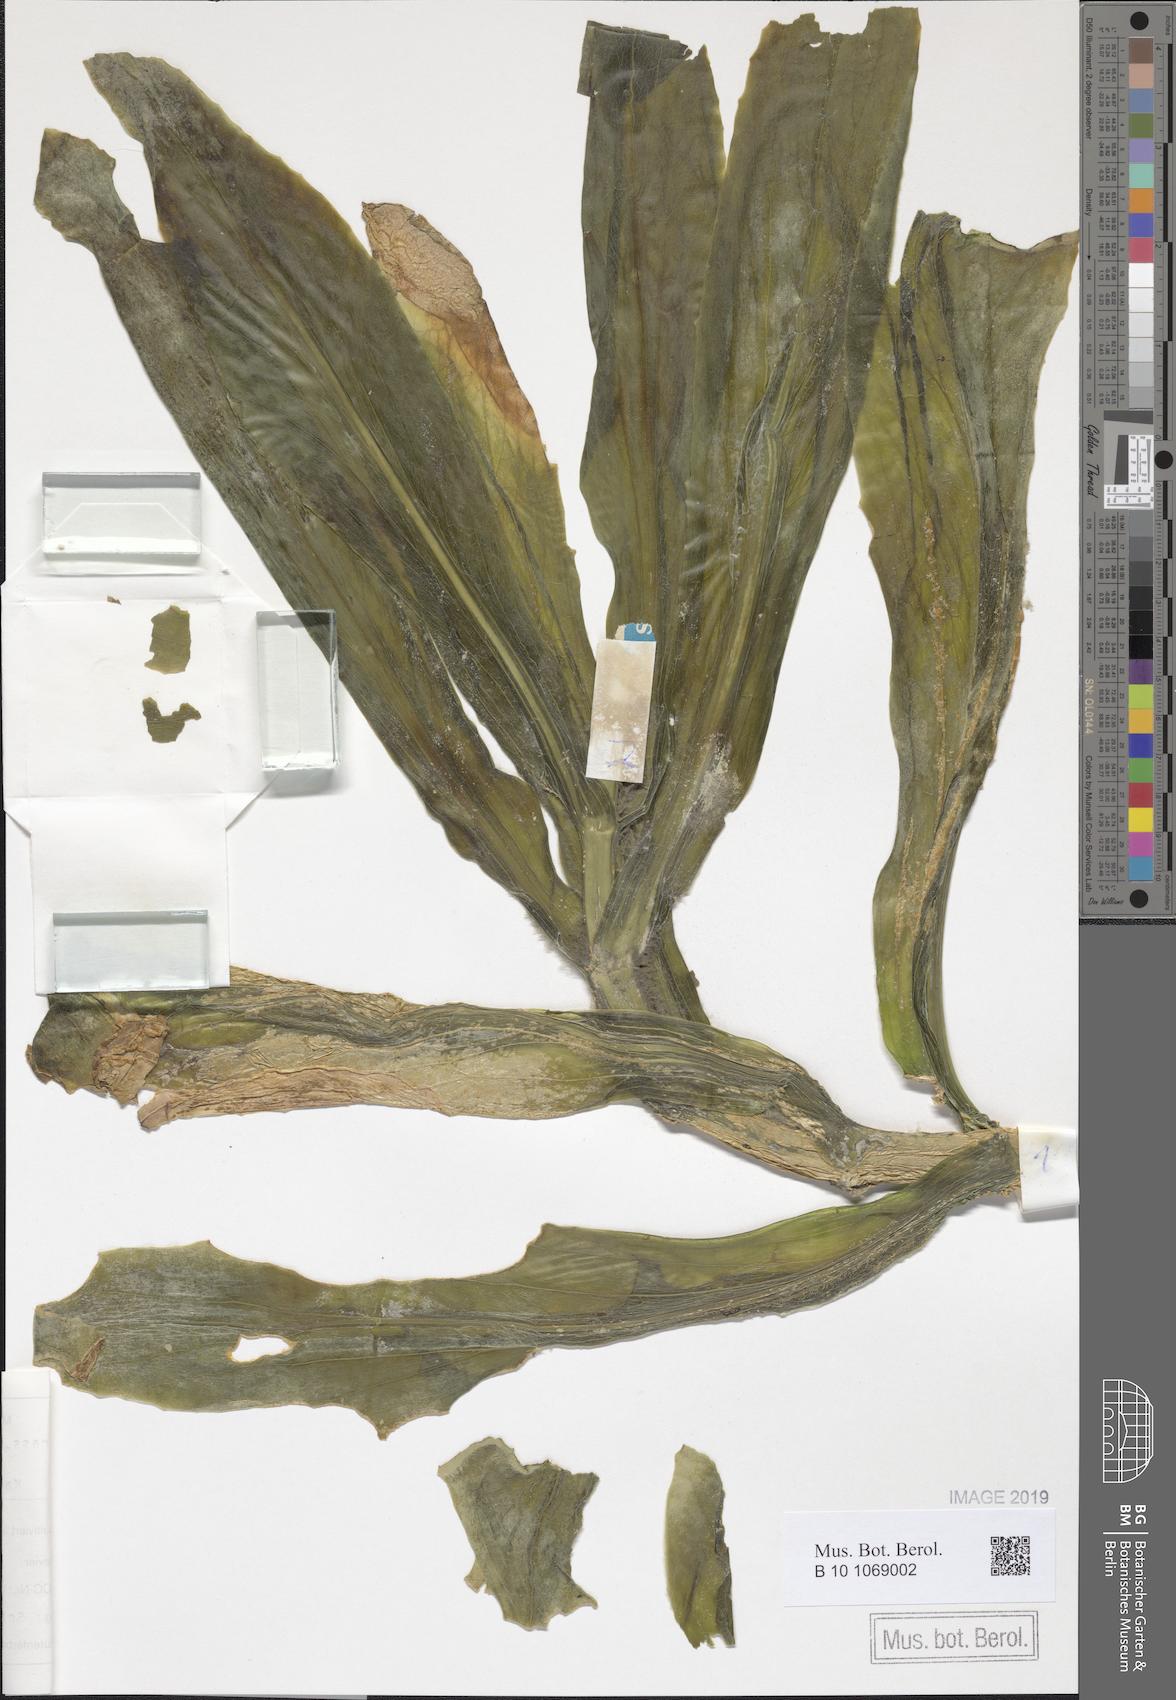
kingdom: Plantae
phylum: Tracheophyta
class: Magnoliopsida
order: Saxifragales
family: Crassulaceae
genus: Kalanchoe
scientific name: Kalanchoe yemensis
